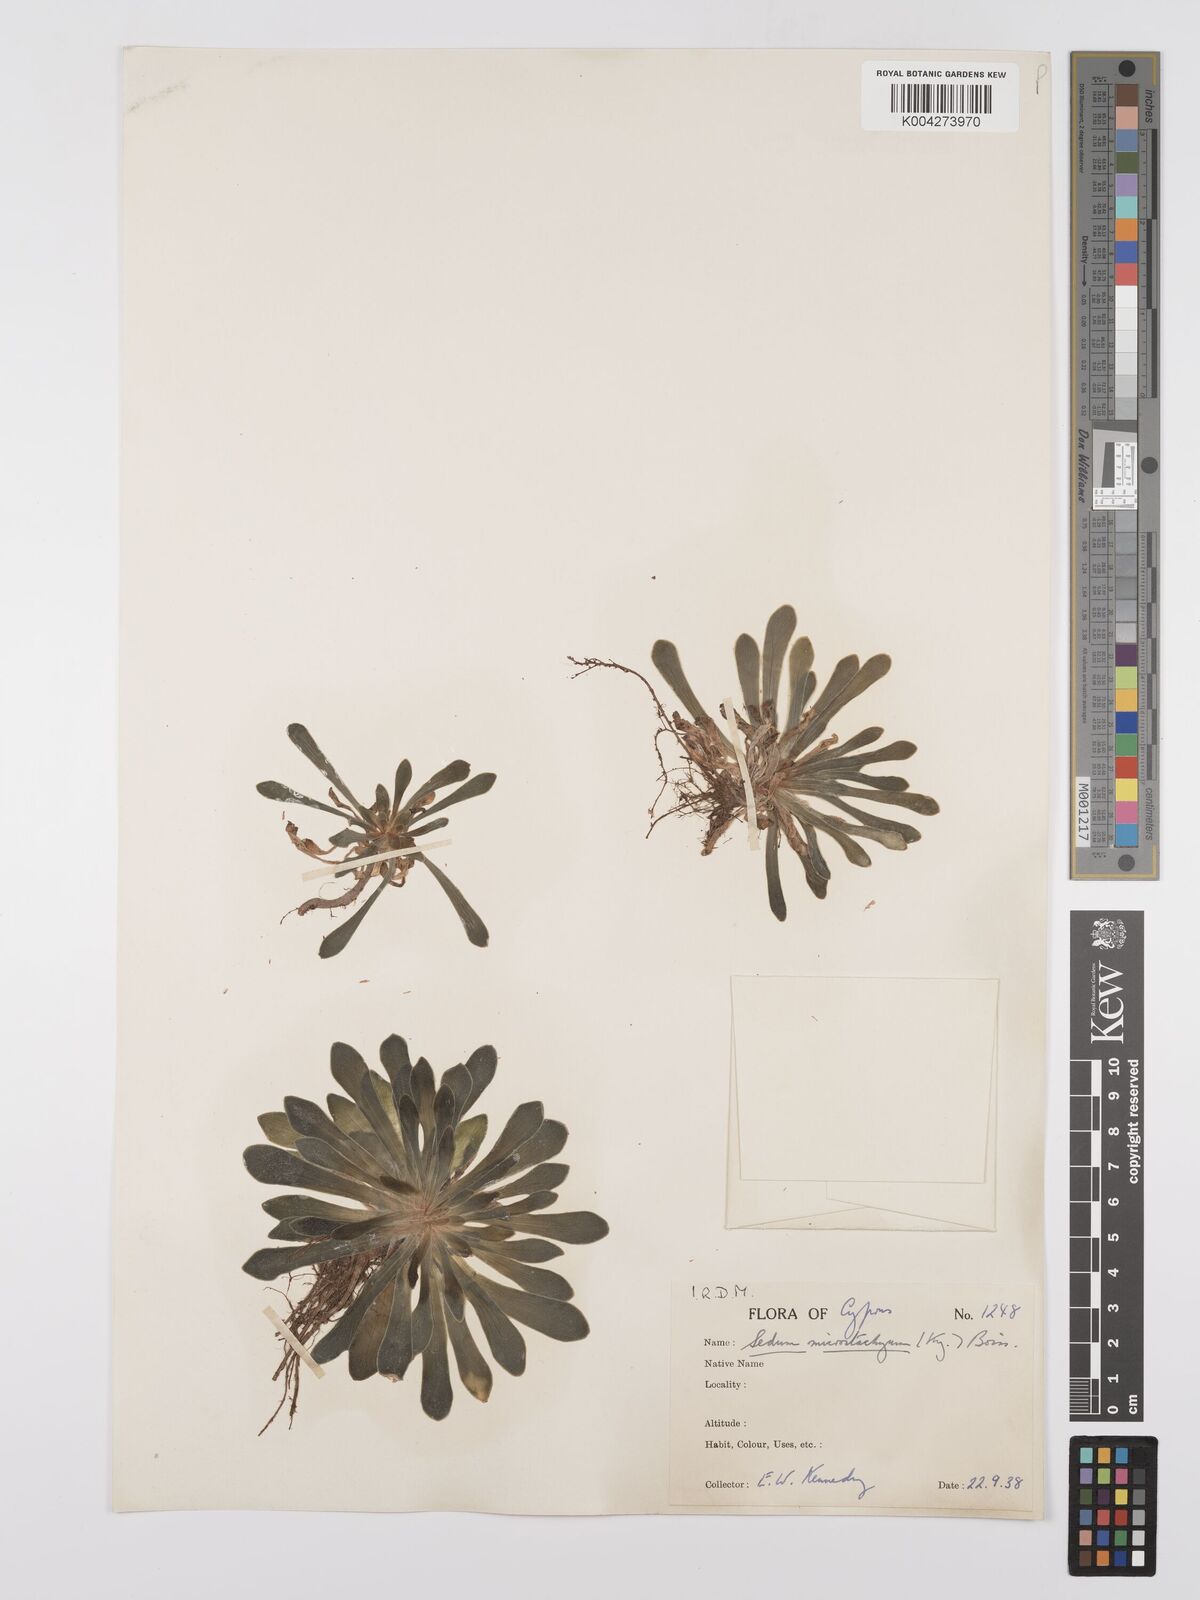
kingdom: Plantae
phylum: Tracheophyta
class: Magnoliopsida
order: Saxifragales
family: Crassulaceae
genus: Sedum
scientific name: Sedum microstachyum
